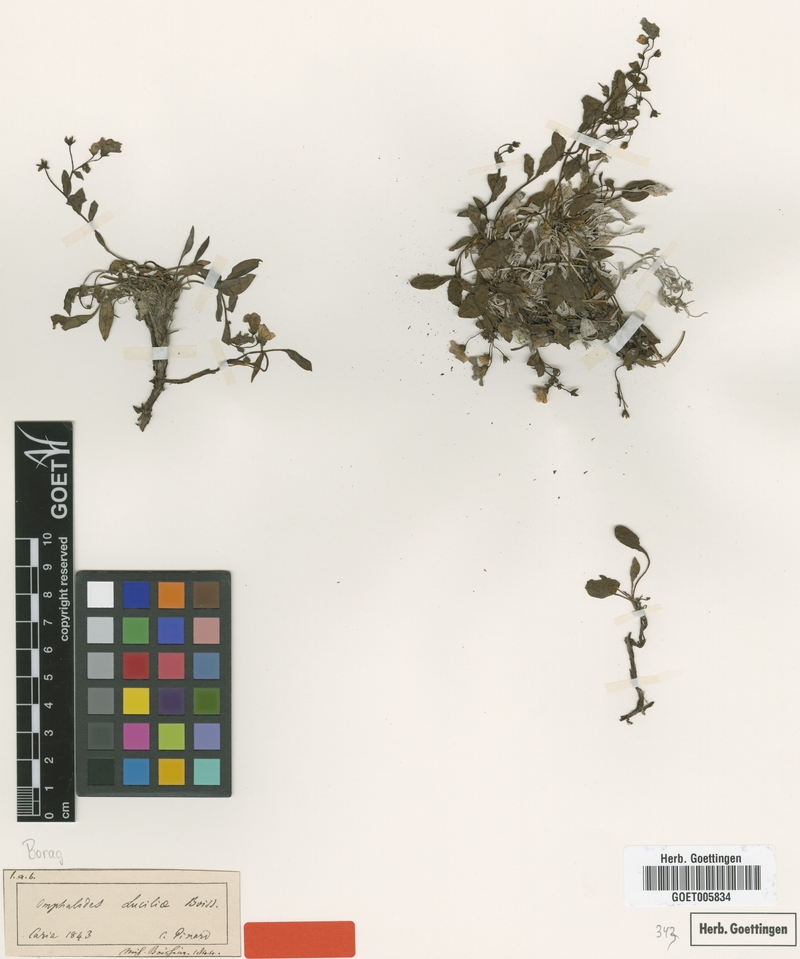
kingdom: Plantae
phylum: Tracheophyta
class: Magnoliopsida
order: Boraginales
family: Boraginaceae
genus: Omphalodes
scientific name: Omphalodes luciliae
